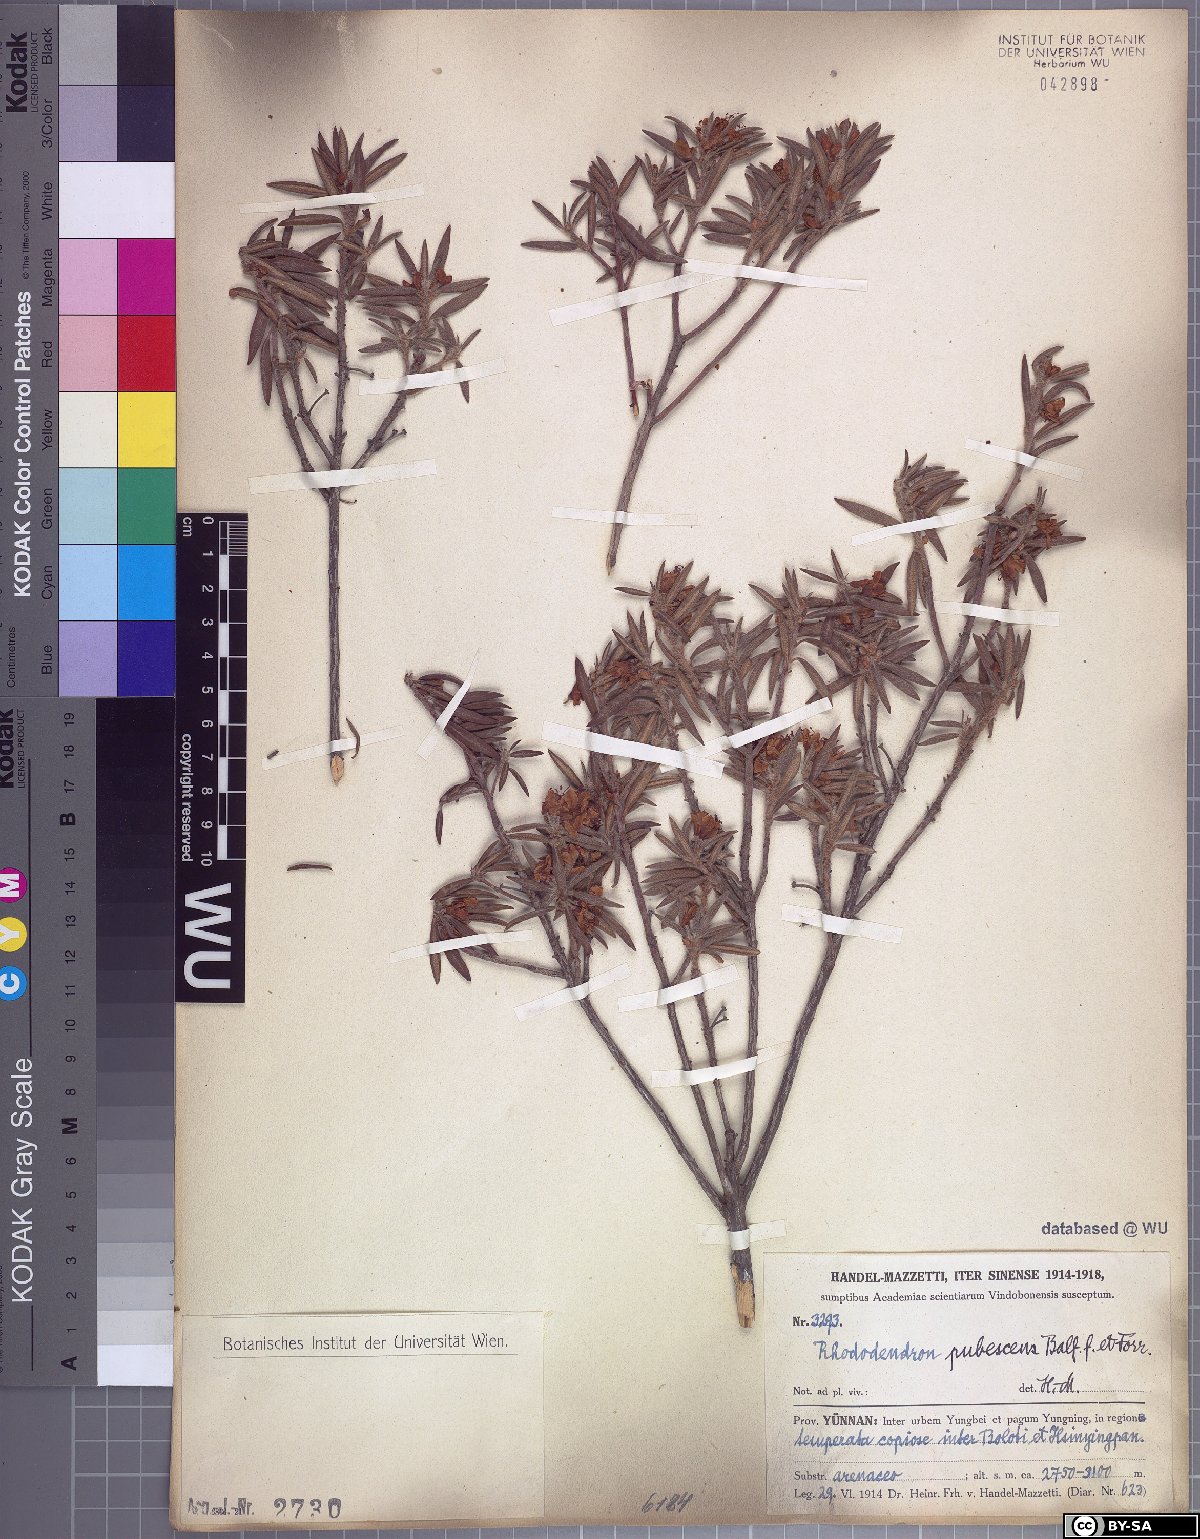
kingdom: Plantae
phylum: Tracheophyta
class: Magnoliopsida
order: Ericales
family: Ericaceae
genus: Rhododendron
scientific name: Rhododendron pubescens
